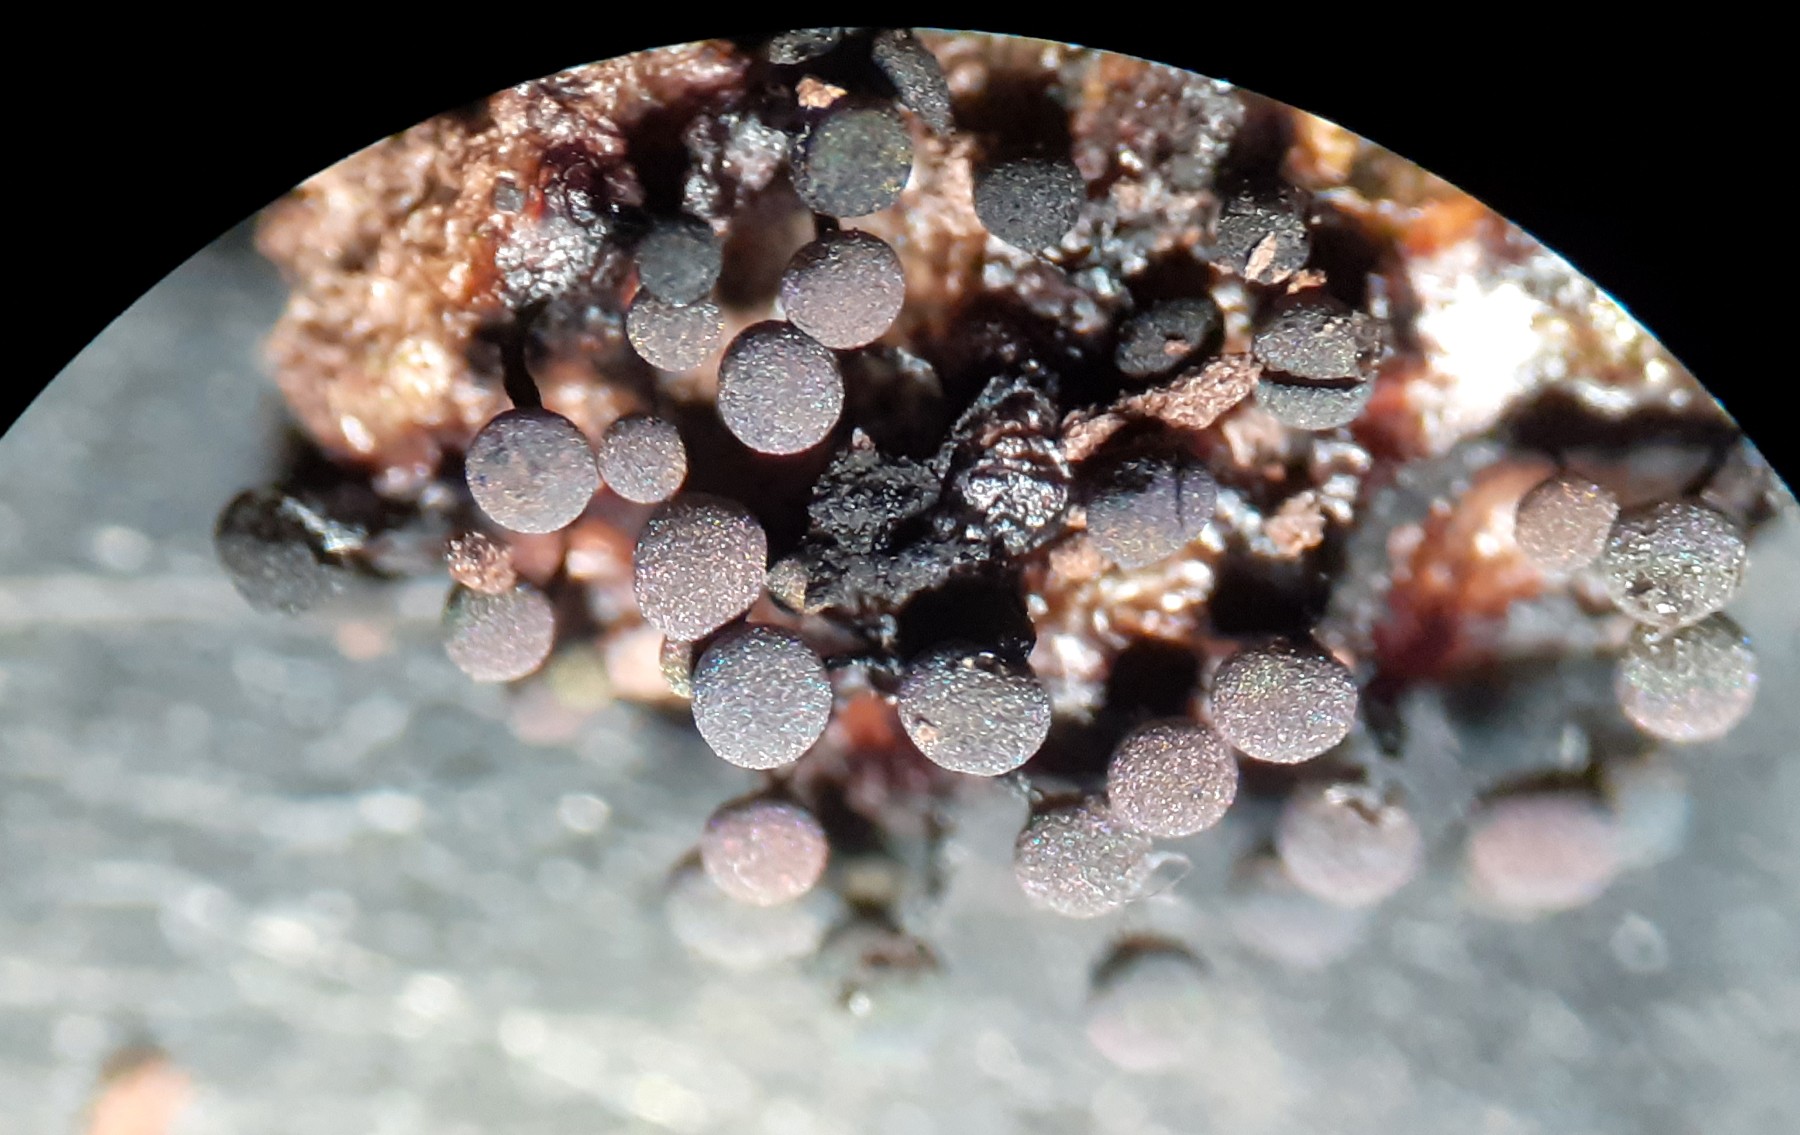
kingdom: Protozoa
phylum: Mycetozoa
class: Myxomycetes
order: Stemonitidales
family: Stemonitidaceae
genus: Lamproderma
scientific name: Lamproderma
